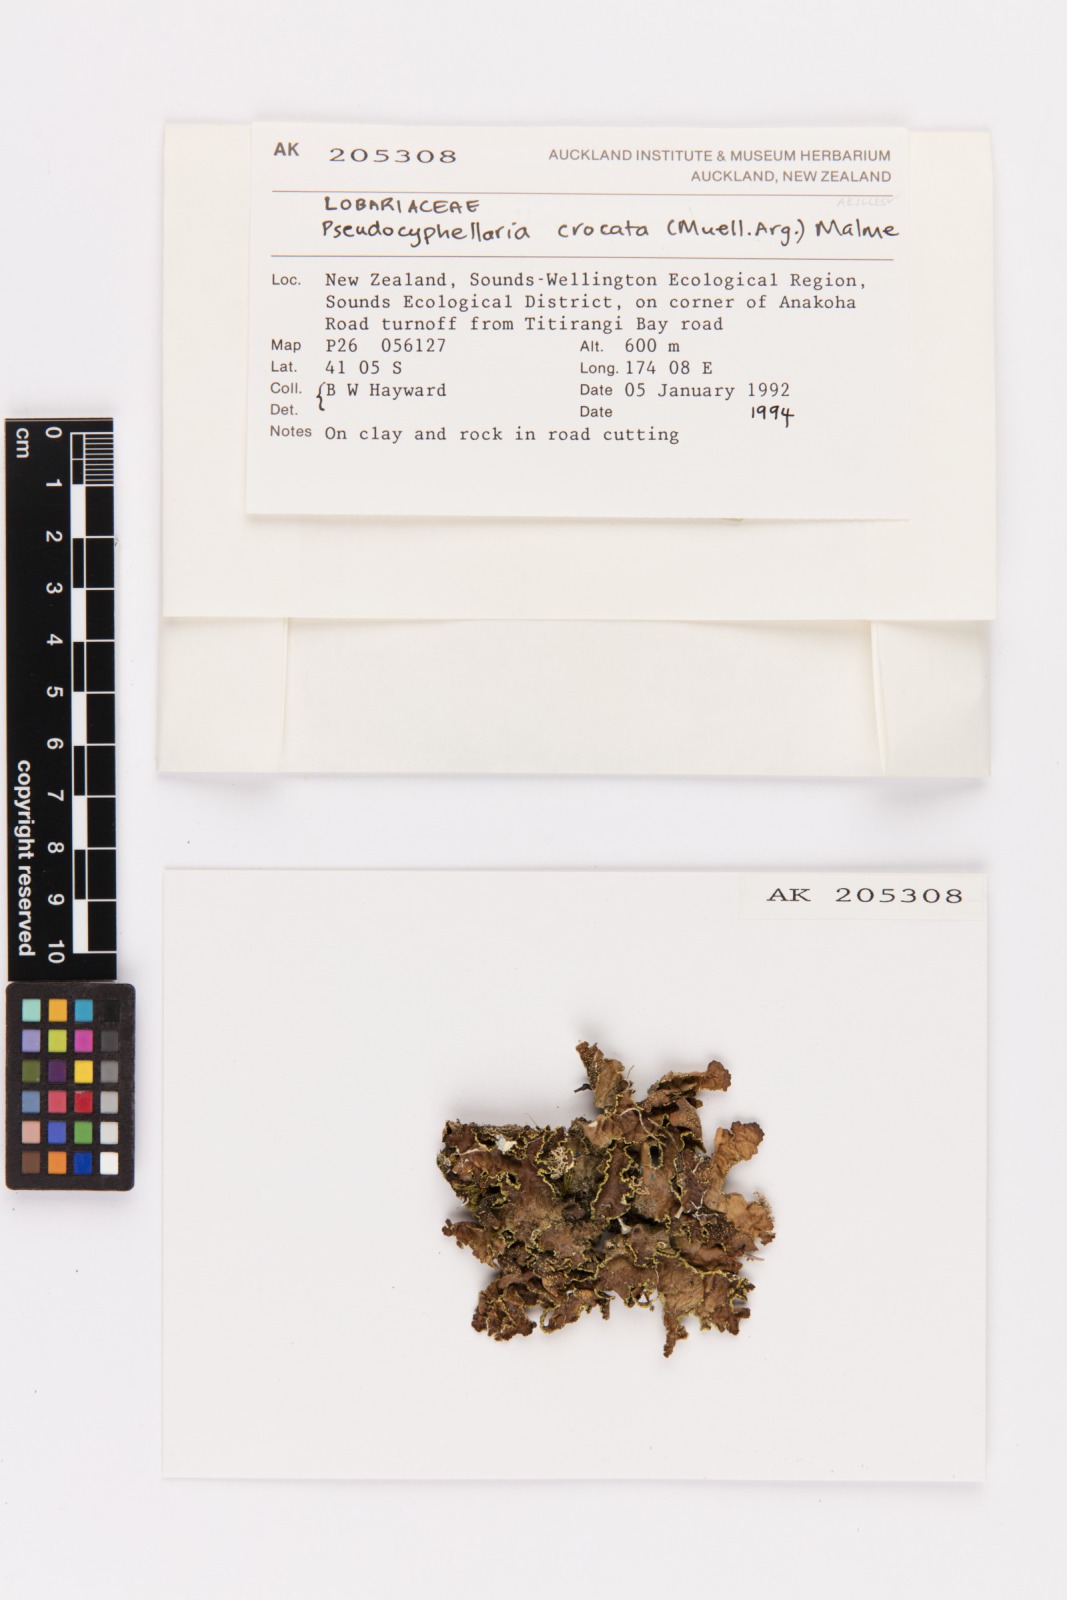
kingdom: Fungi
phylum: Ascomycota
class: Lecanoromycetes
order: Peltigerales
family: Lobariaceae
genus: Pseudocyphellaria
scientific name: Pseudocyphellaria crocata
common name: Golden specklebelly
